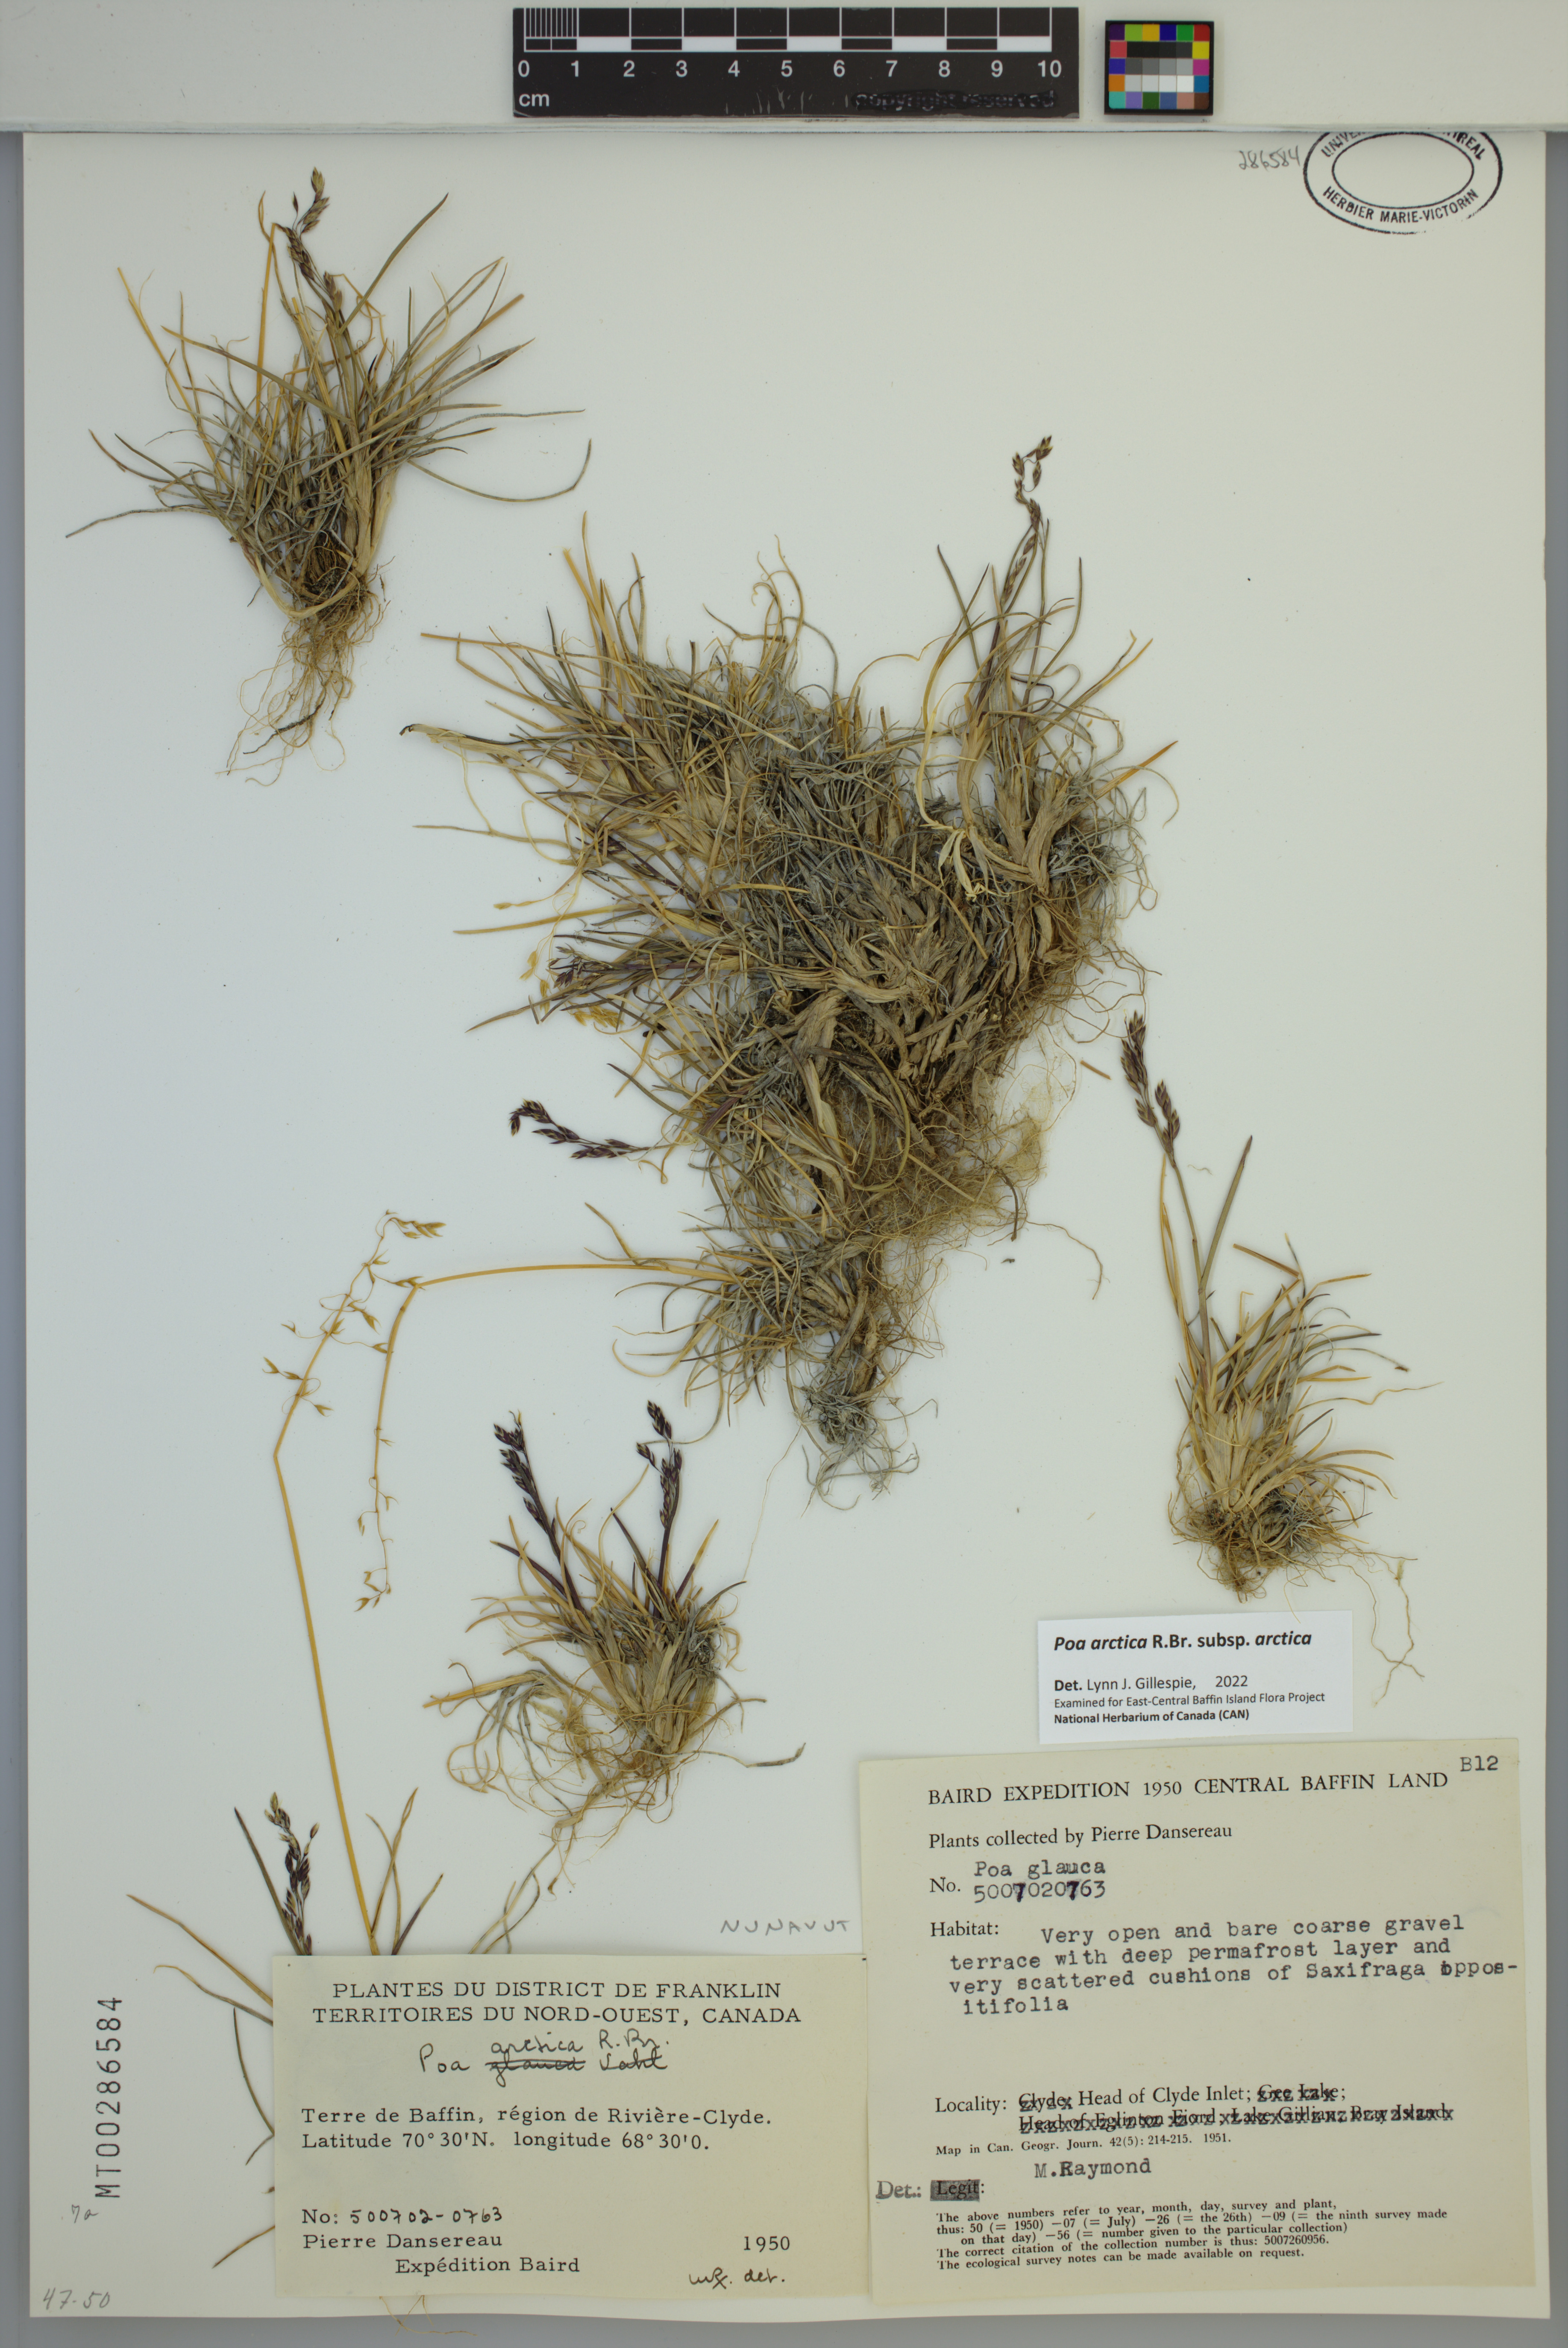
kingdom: Plantae
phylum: Tracheophyta
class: Liliopsida
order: Poales
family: Poaceae
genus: Poa
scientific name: Poa arctica
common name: Arctic bluegrass
